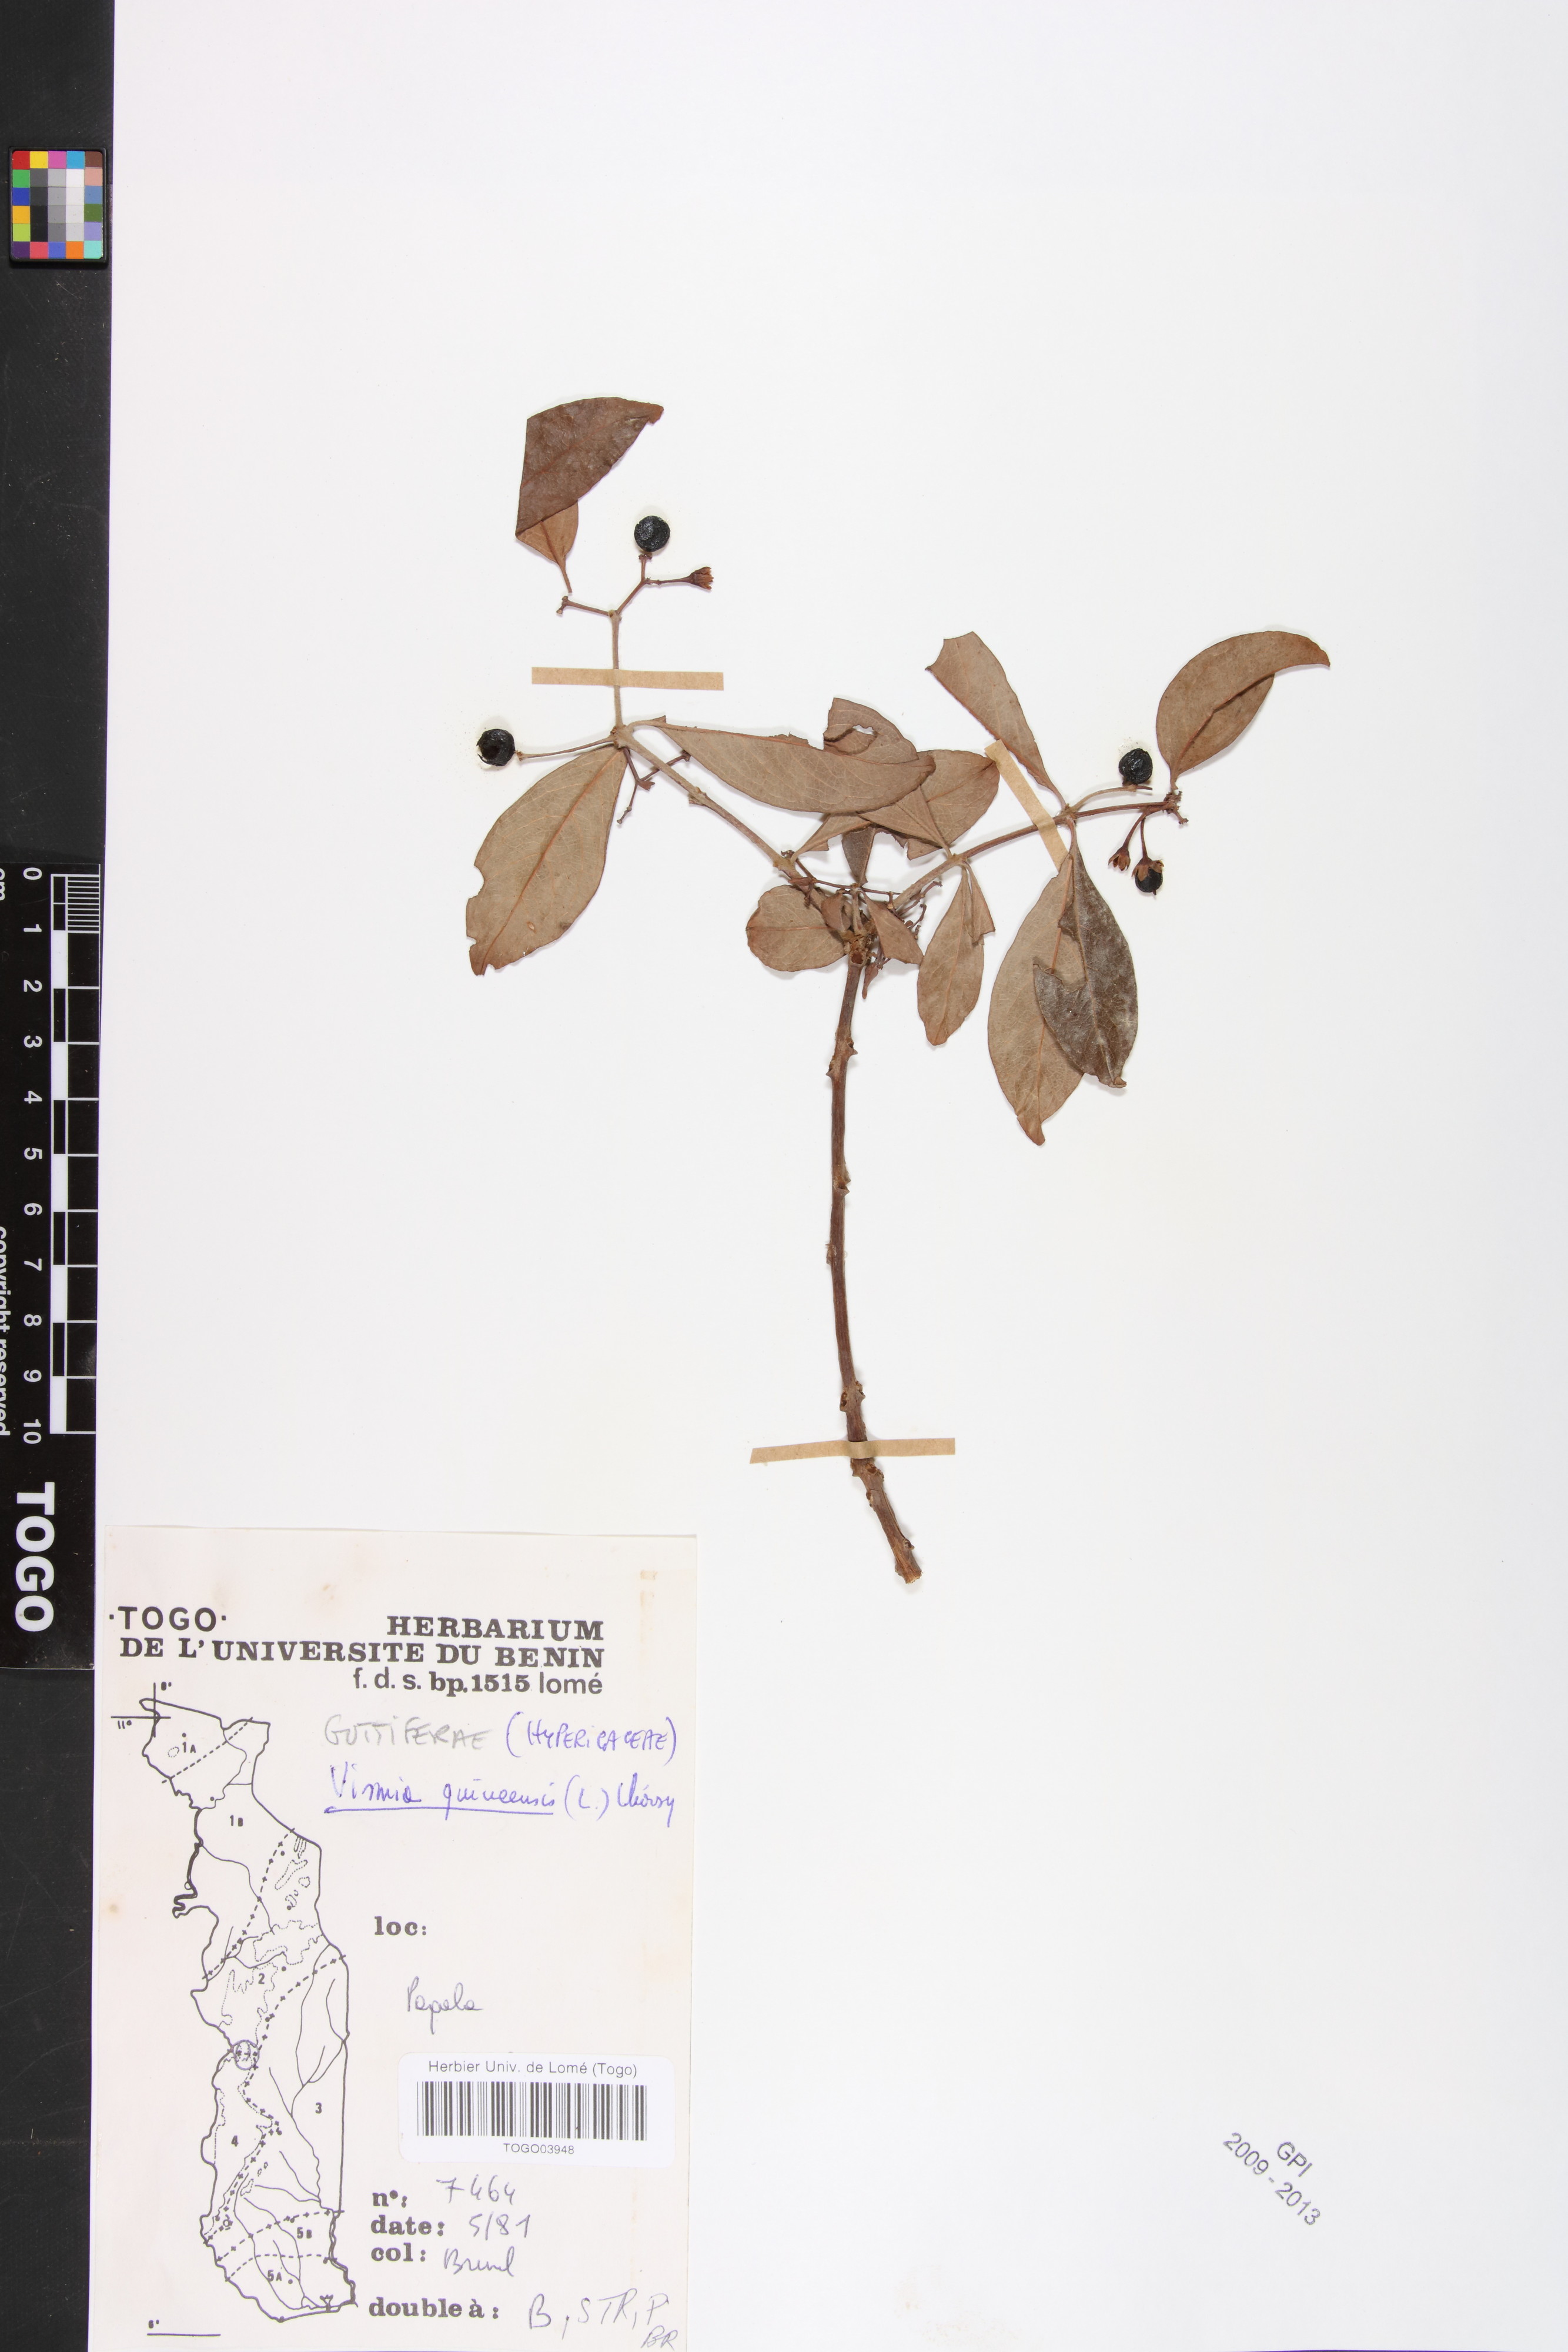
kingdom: Plantae
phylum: Tracheophyta
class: Magnoliopsida
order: Malpighiales
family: Hypericaceae
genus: Psorospermum
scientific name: Psorospermum guineense
